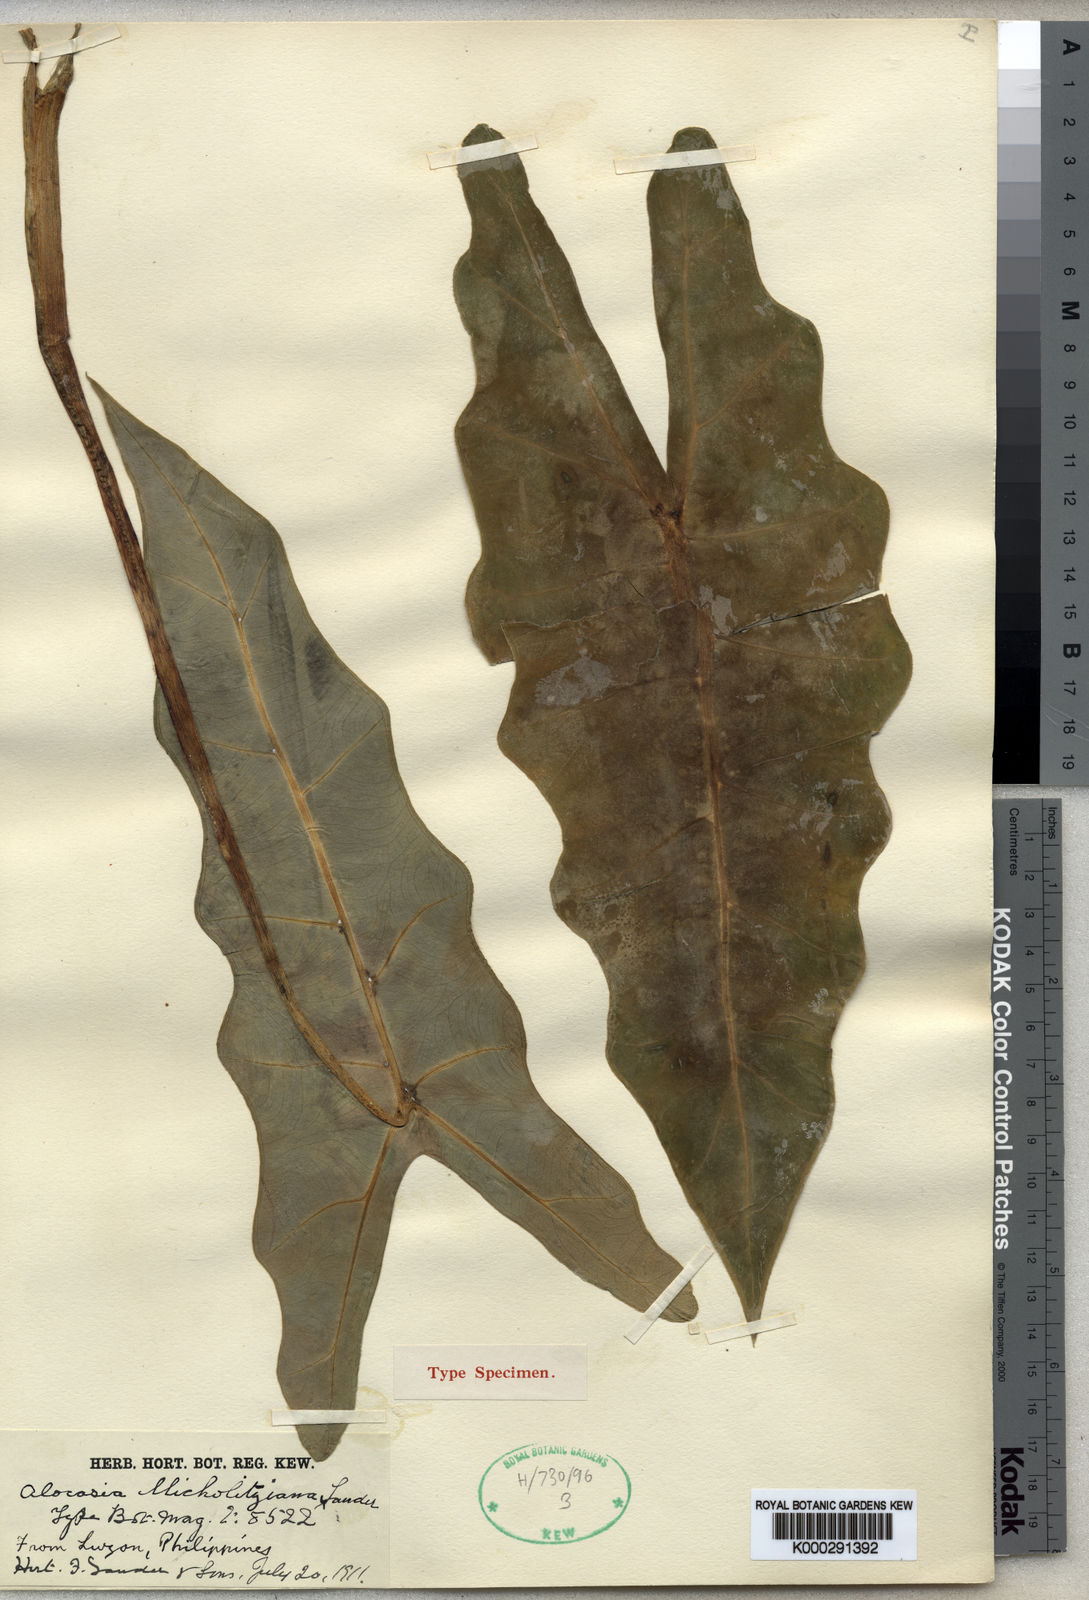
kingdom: Plantae
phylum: Tracheophyta
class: Liliopsida
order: Alismatales
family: Araceae
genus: Alocasia
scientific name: Alocasia micholitziana
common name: Green-velvet alocasia
